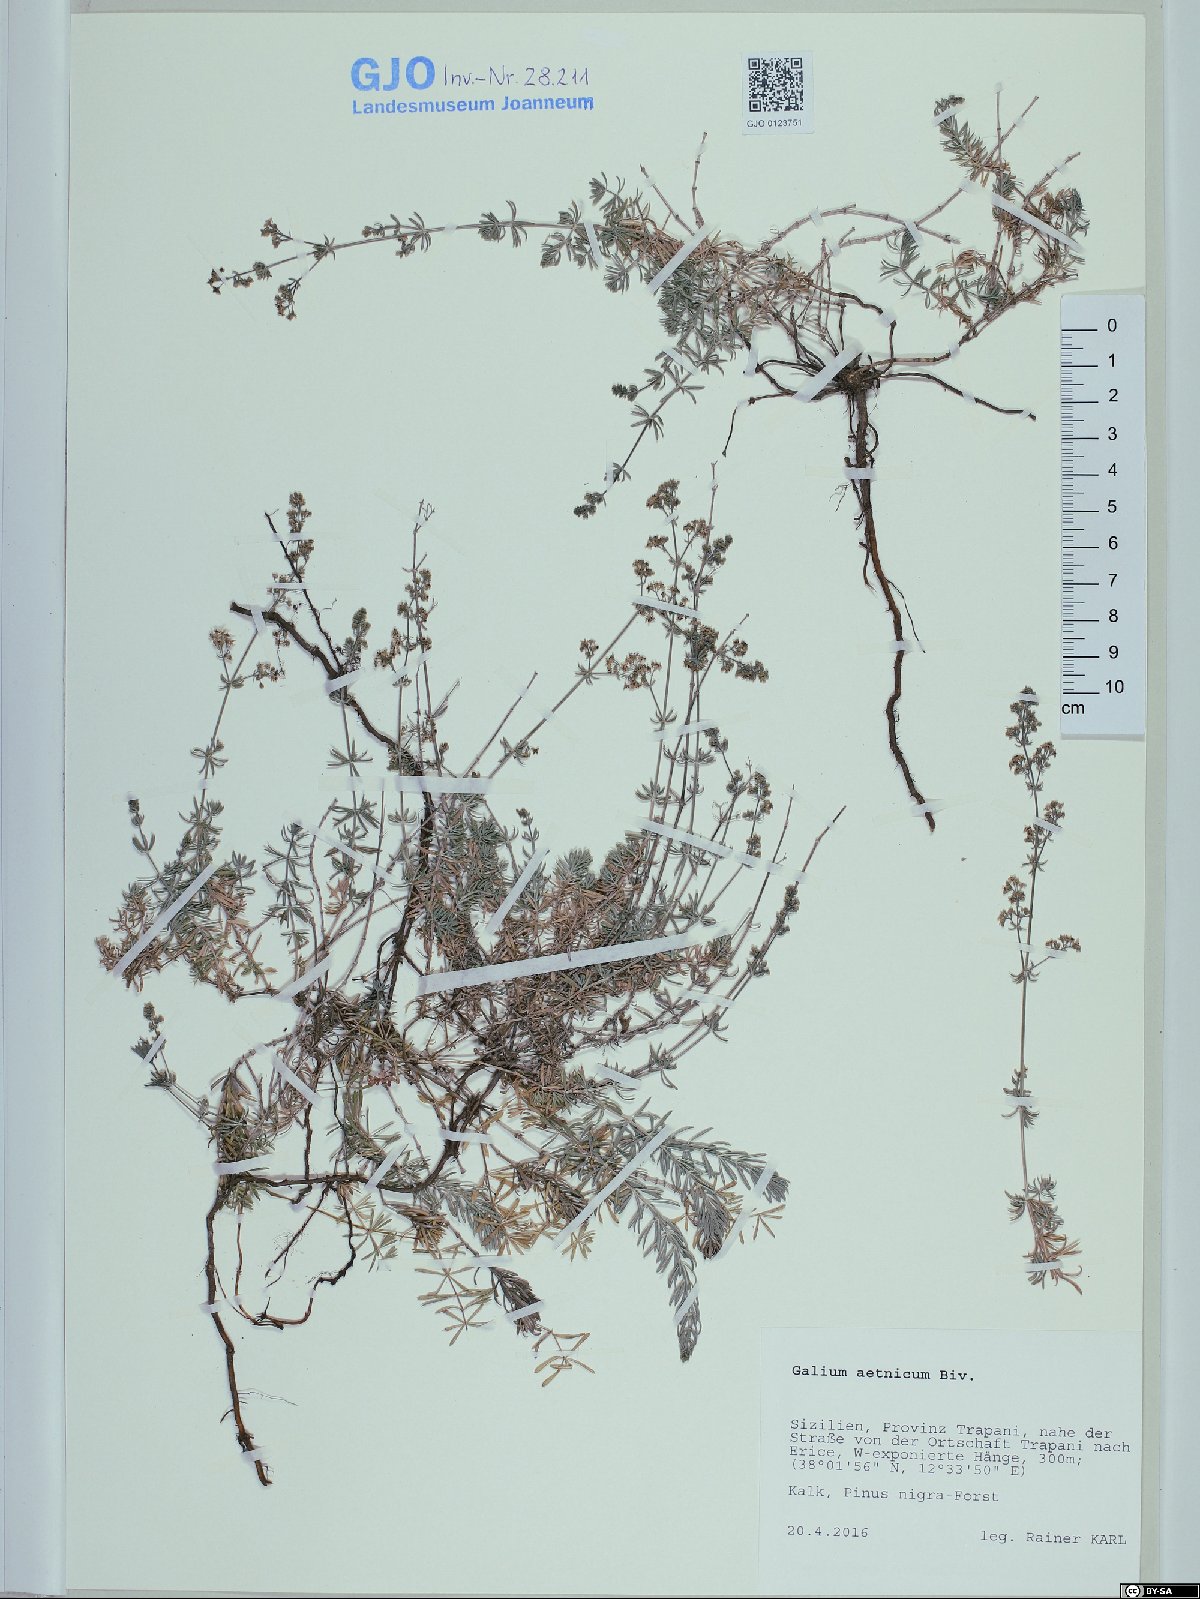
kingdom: Plantae
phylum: Tracheophyta
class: Magnoliopsida
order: Gentianales
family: Rubiaceae
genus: Galium
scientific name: Galium aetnicum
